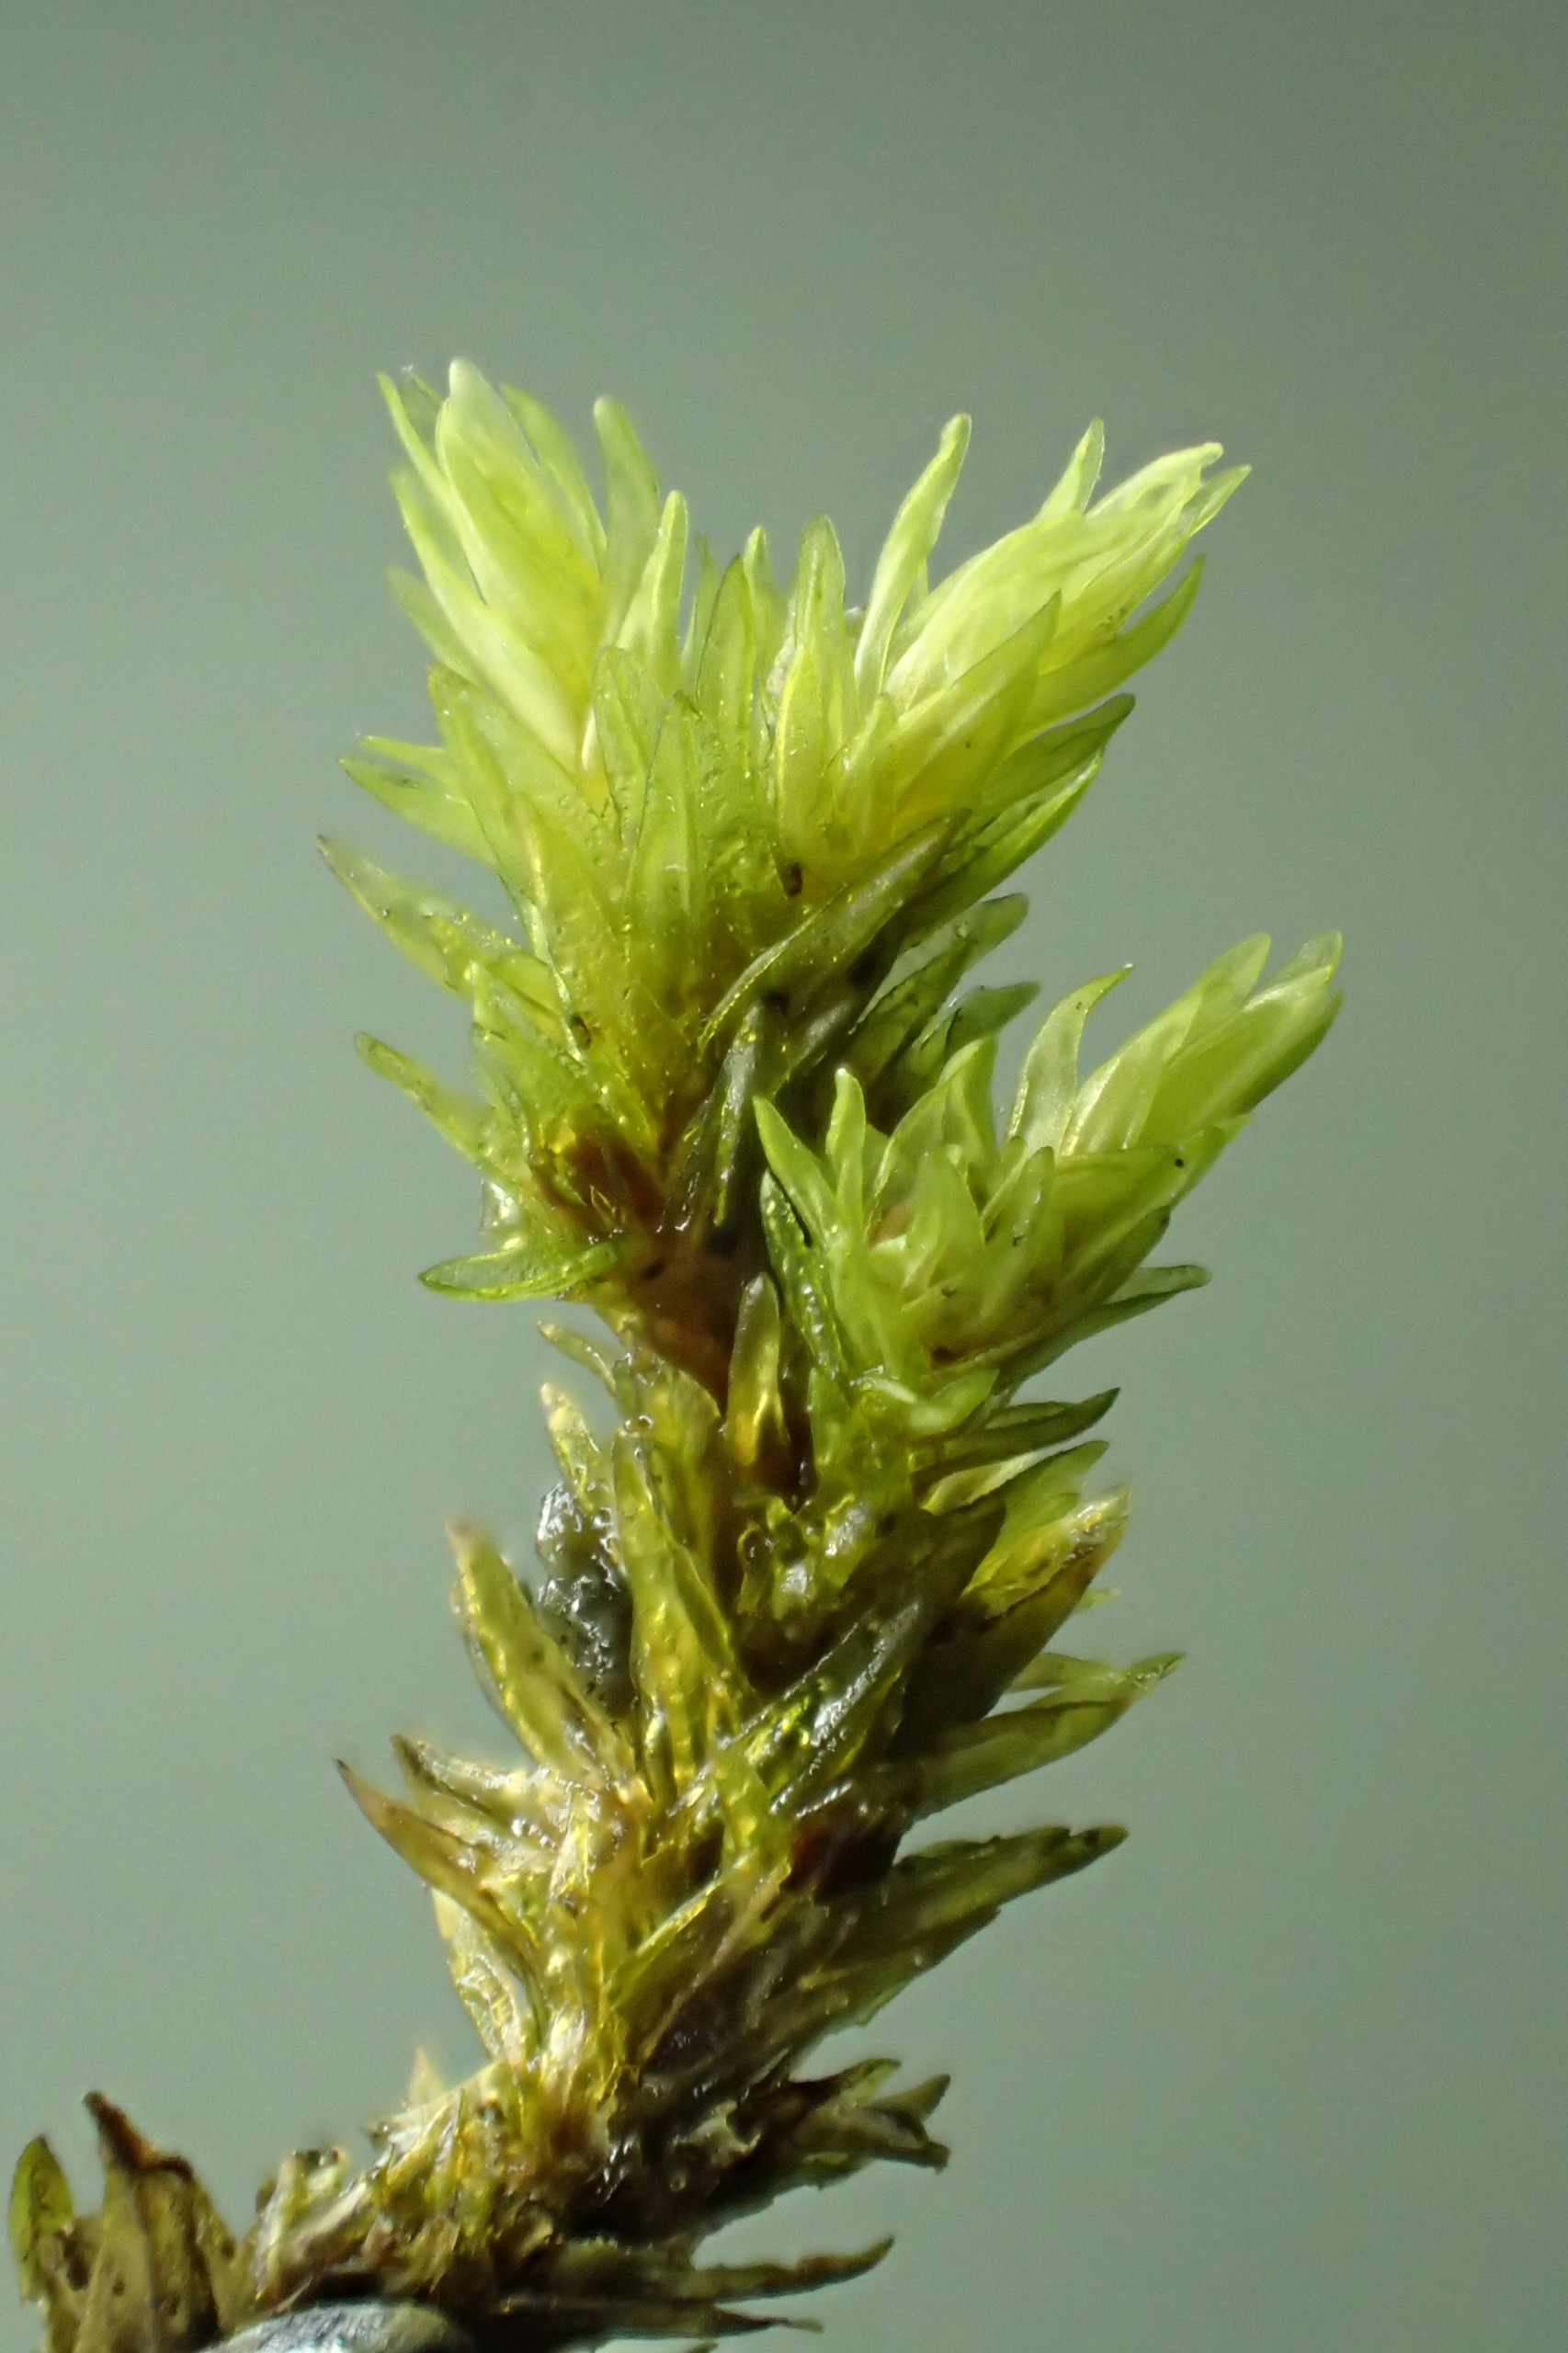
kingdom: Plantae
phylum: Bryophyta
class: Bryopsida
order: Grimmiales
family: Grimmiaceae
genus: Codriophorus
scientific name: Codriophorus acicularis
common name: Butbladet børstemos
